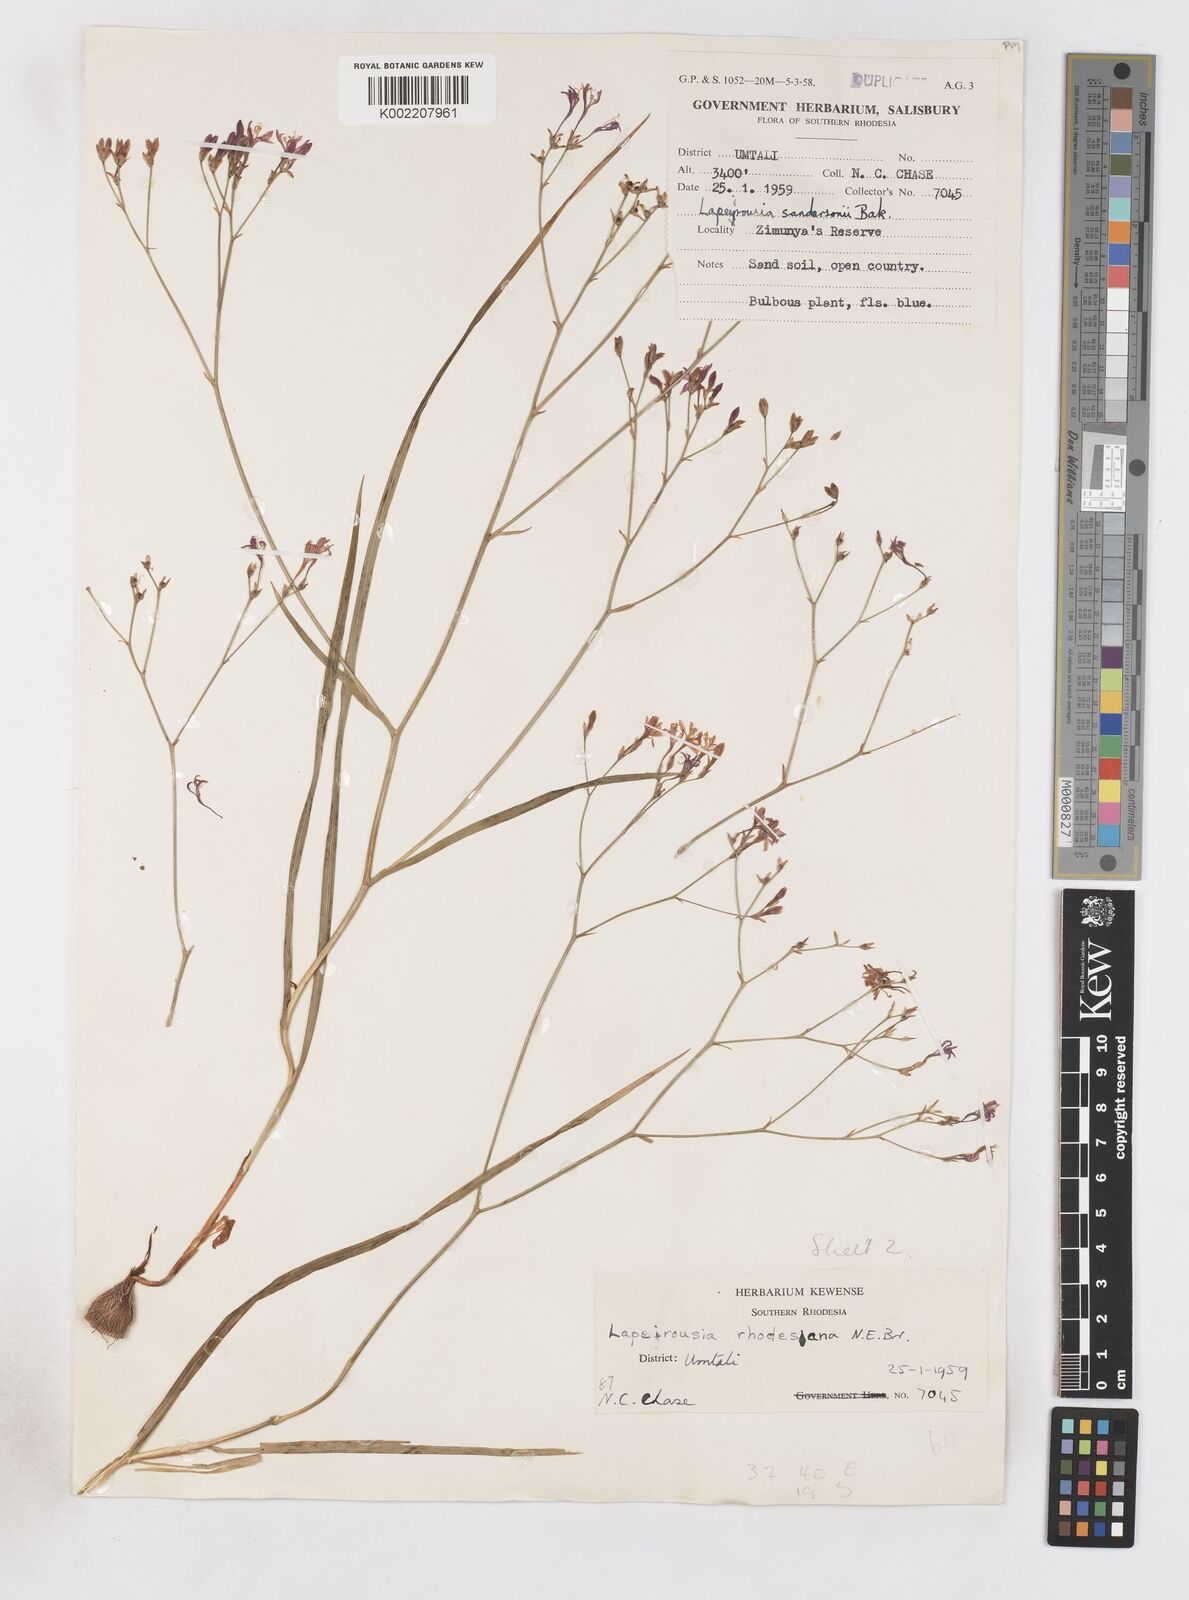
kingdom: Plantae
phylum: Tracheophyta
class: Liliopsida
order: Asparagales
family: Iridaceae
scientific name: Iridaceae
